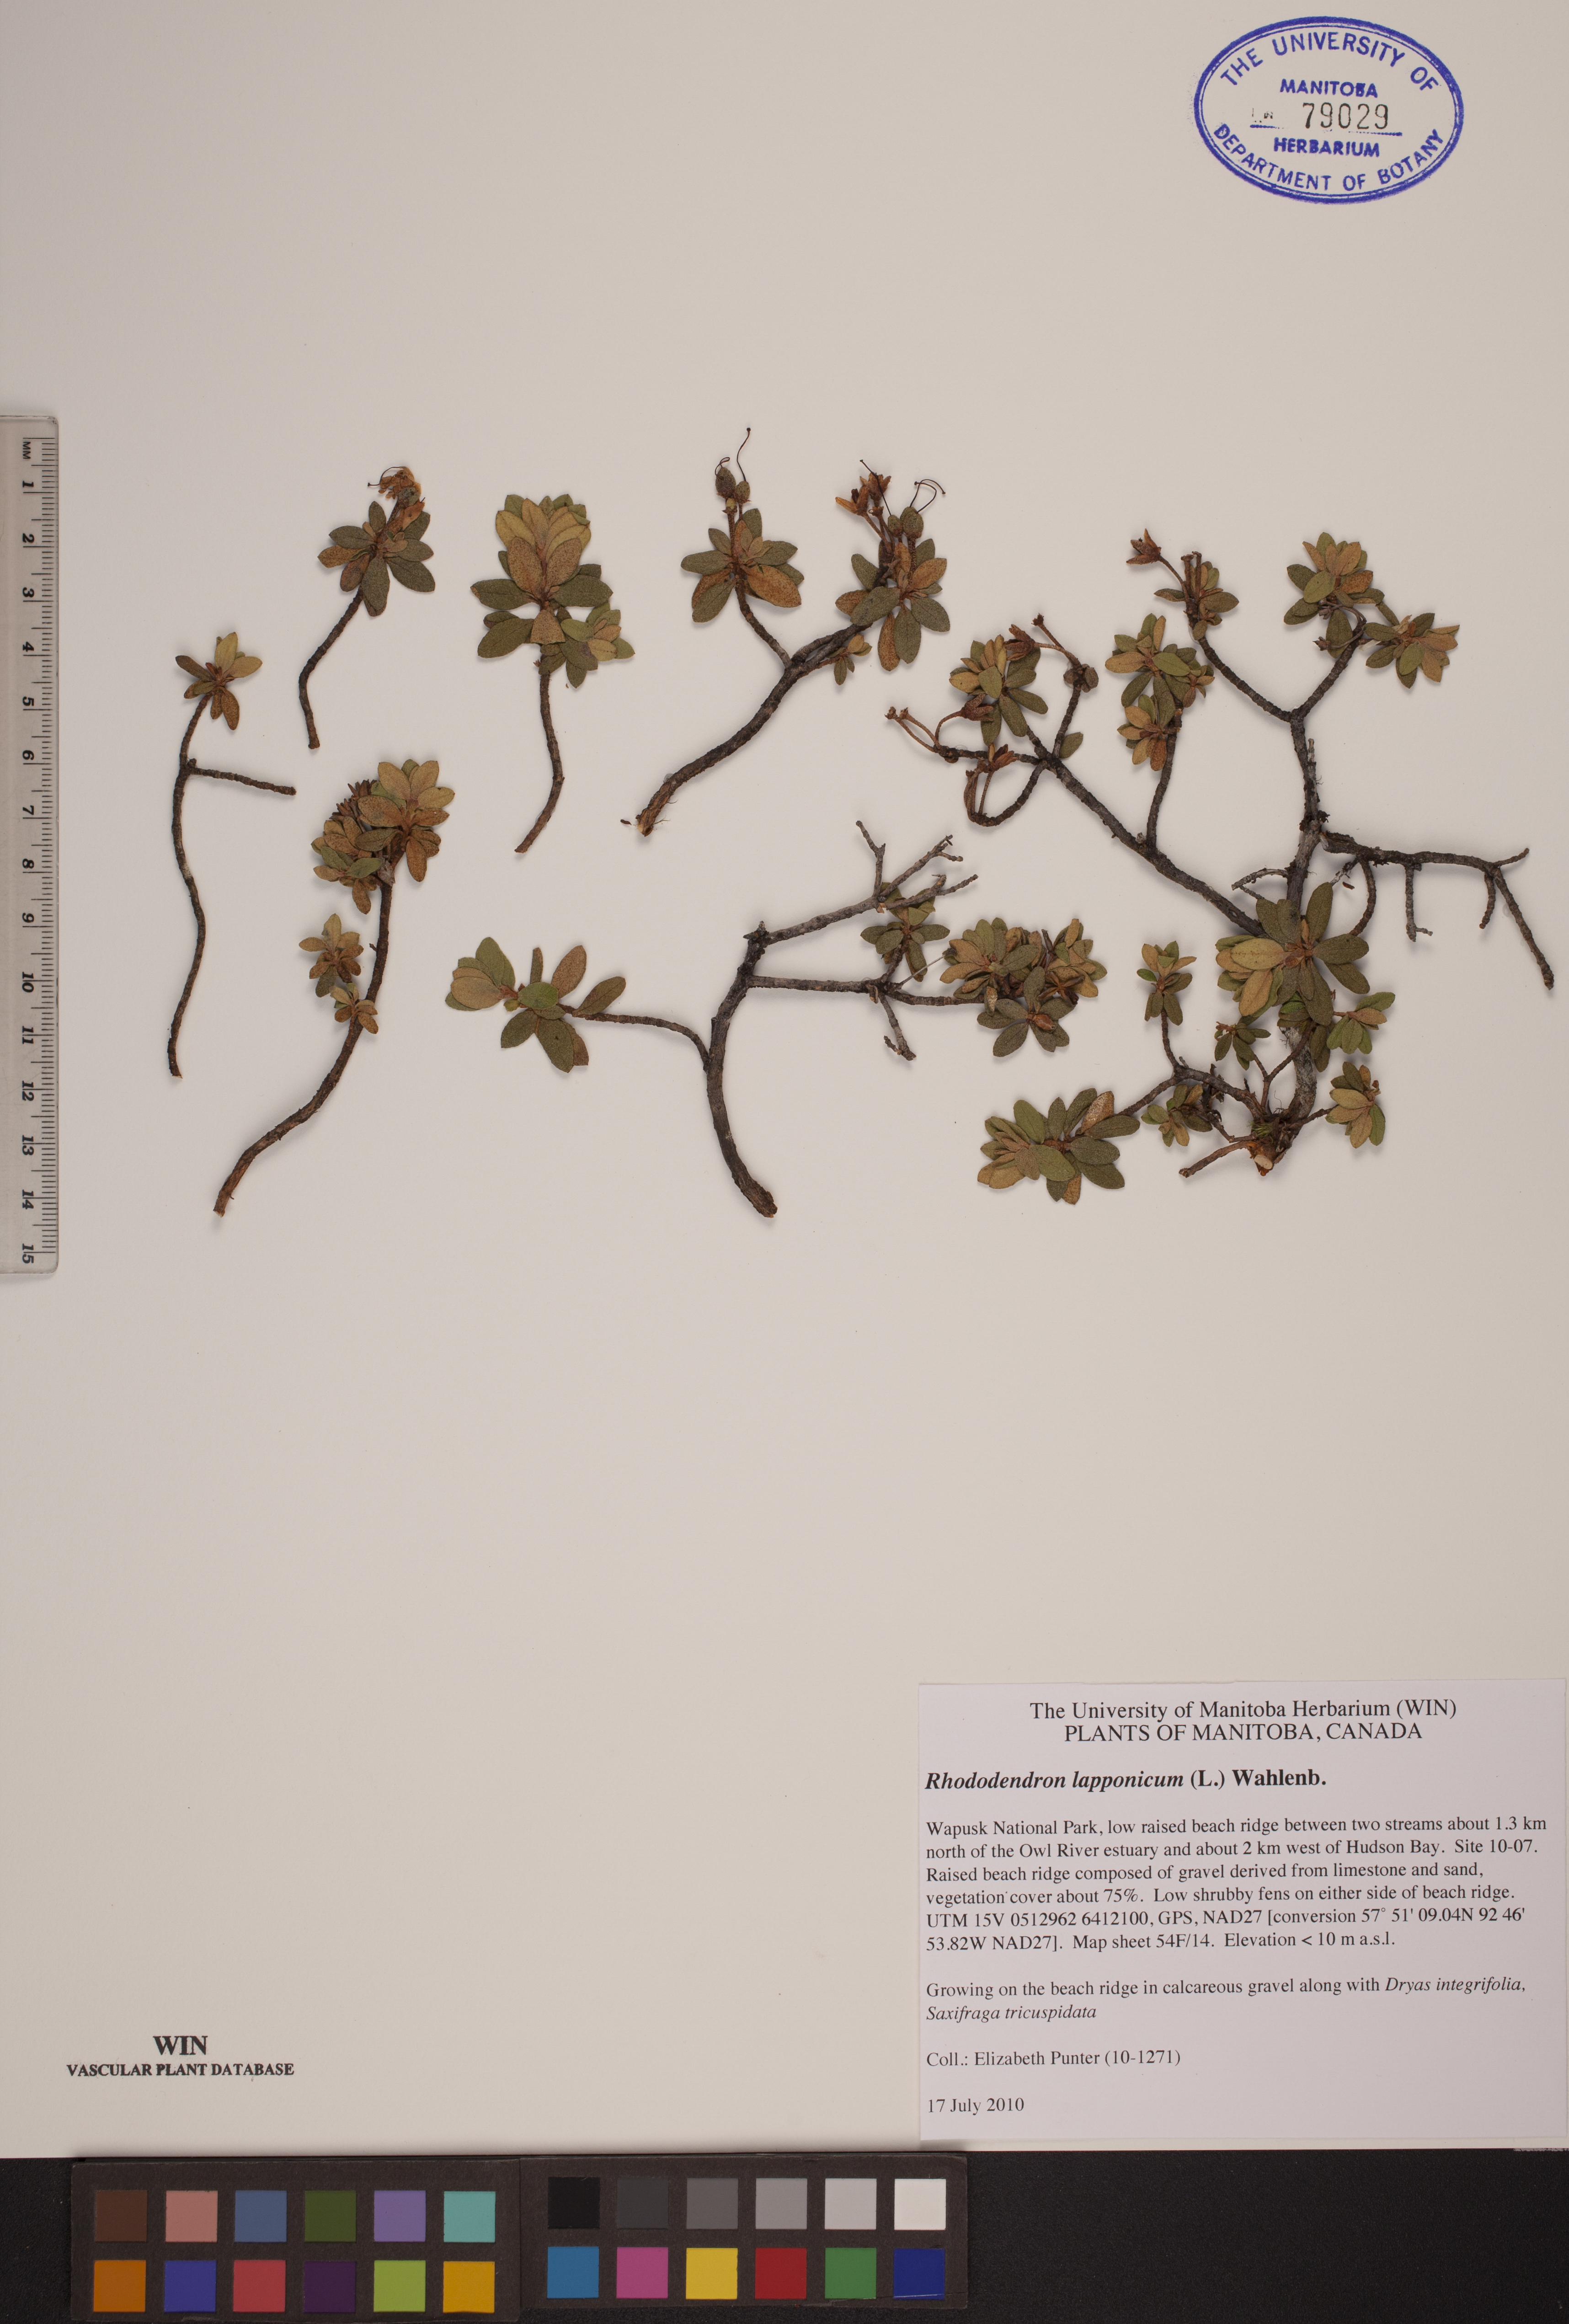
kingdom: Plantae
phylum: Tracheophyta
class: Magnoliopsida
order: Ericales
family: Ericaceae
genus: Rhododendron
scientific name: Rhododendron lapponicum
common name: Lapland rhododendron
